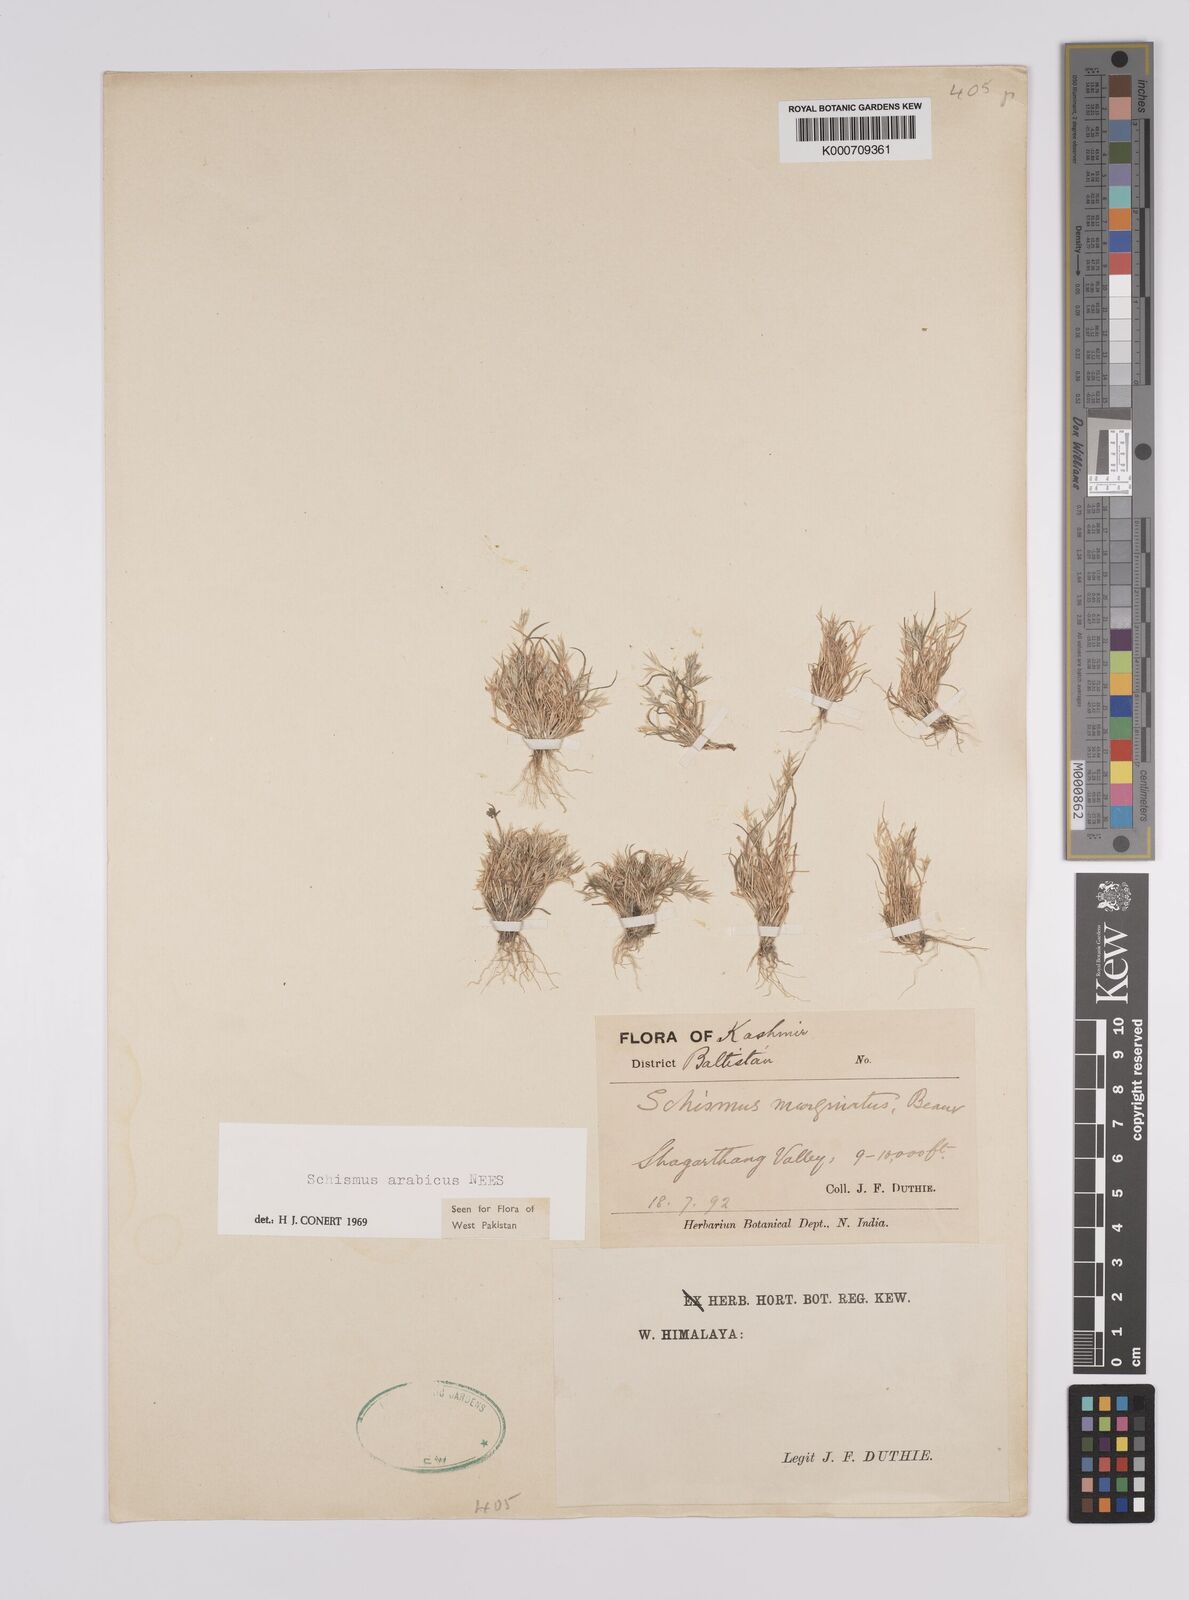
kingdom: Plantae
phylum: Tracheophyta
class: Liliopsida
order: Poales
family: Poaceae
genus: Schismus
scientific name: Schismus arabicus
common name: Arabian schismus
